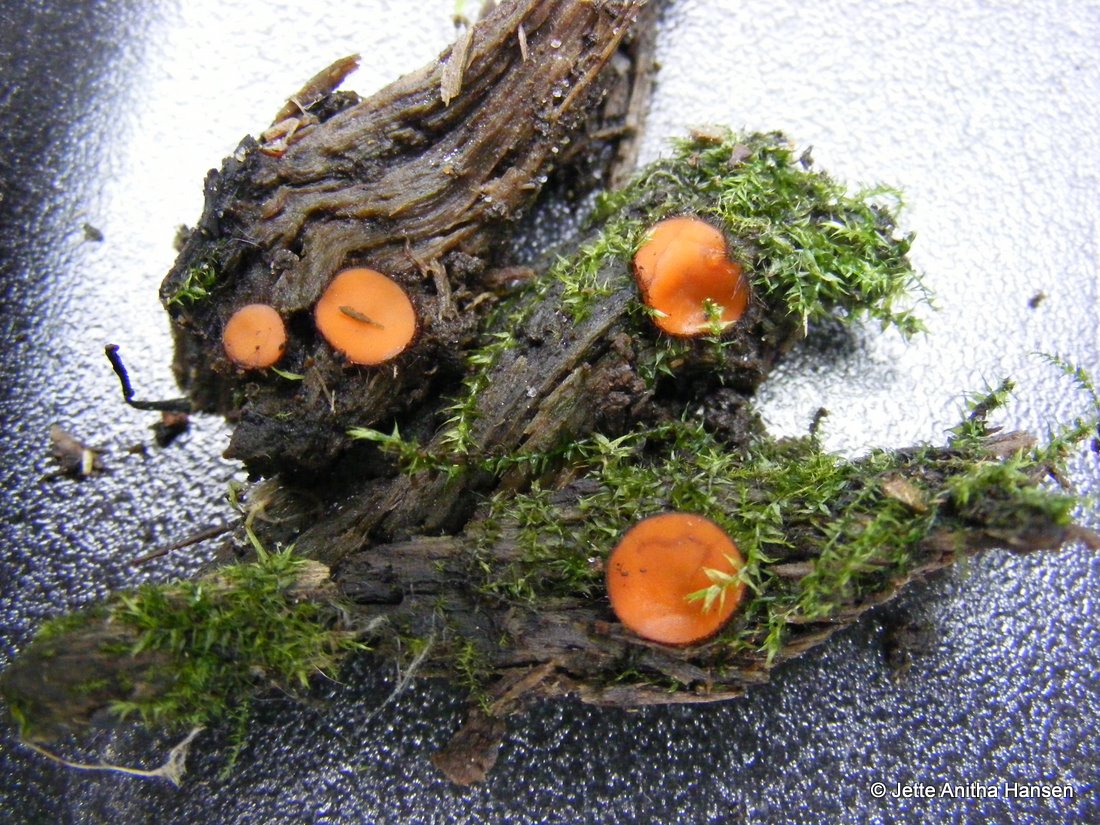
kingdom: Fungi
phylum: Ascomycota
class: Pezizomycetes
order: Pezizales
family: Pyronemataceae
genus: Scutellinia
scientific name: Scutellinia scutellata
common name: frynset skjoldbæger
